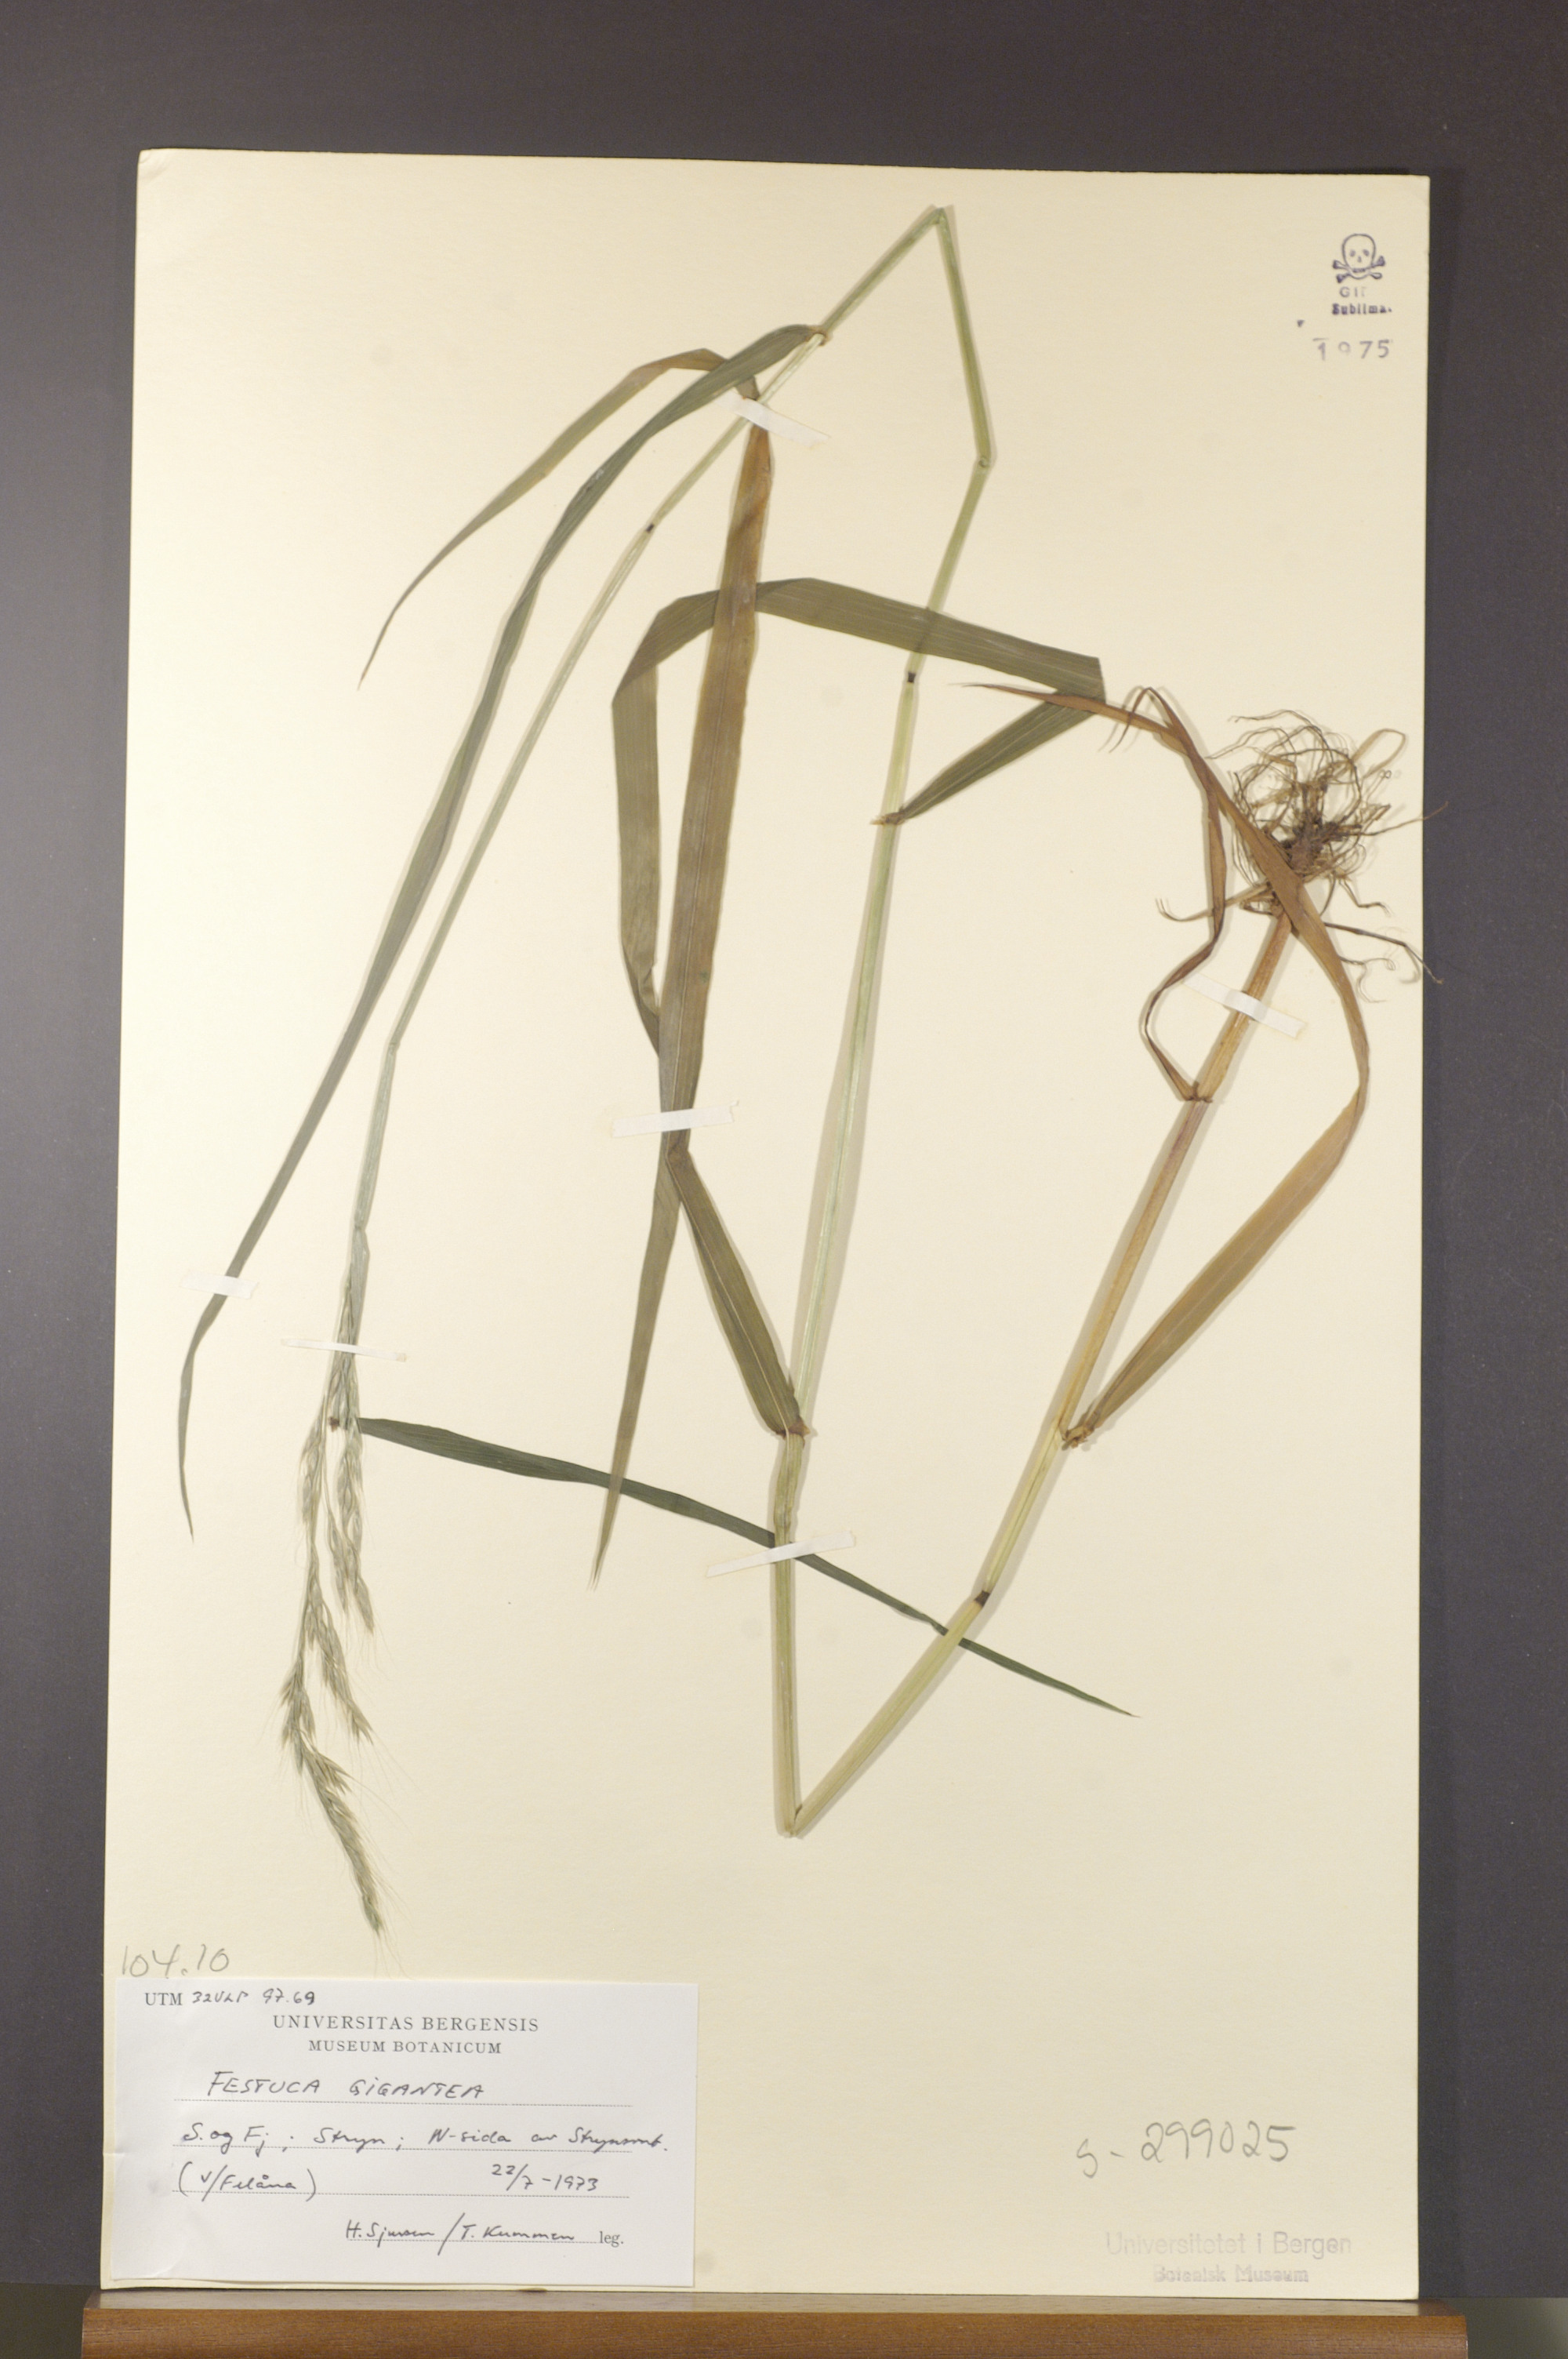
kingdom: Plantae
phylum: Tracheophyta
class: Liliopsida
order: Poales
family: Poaceae
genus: Lolium
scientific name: Lolium giganteum
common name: Giant fescue
